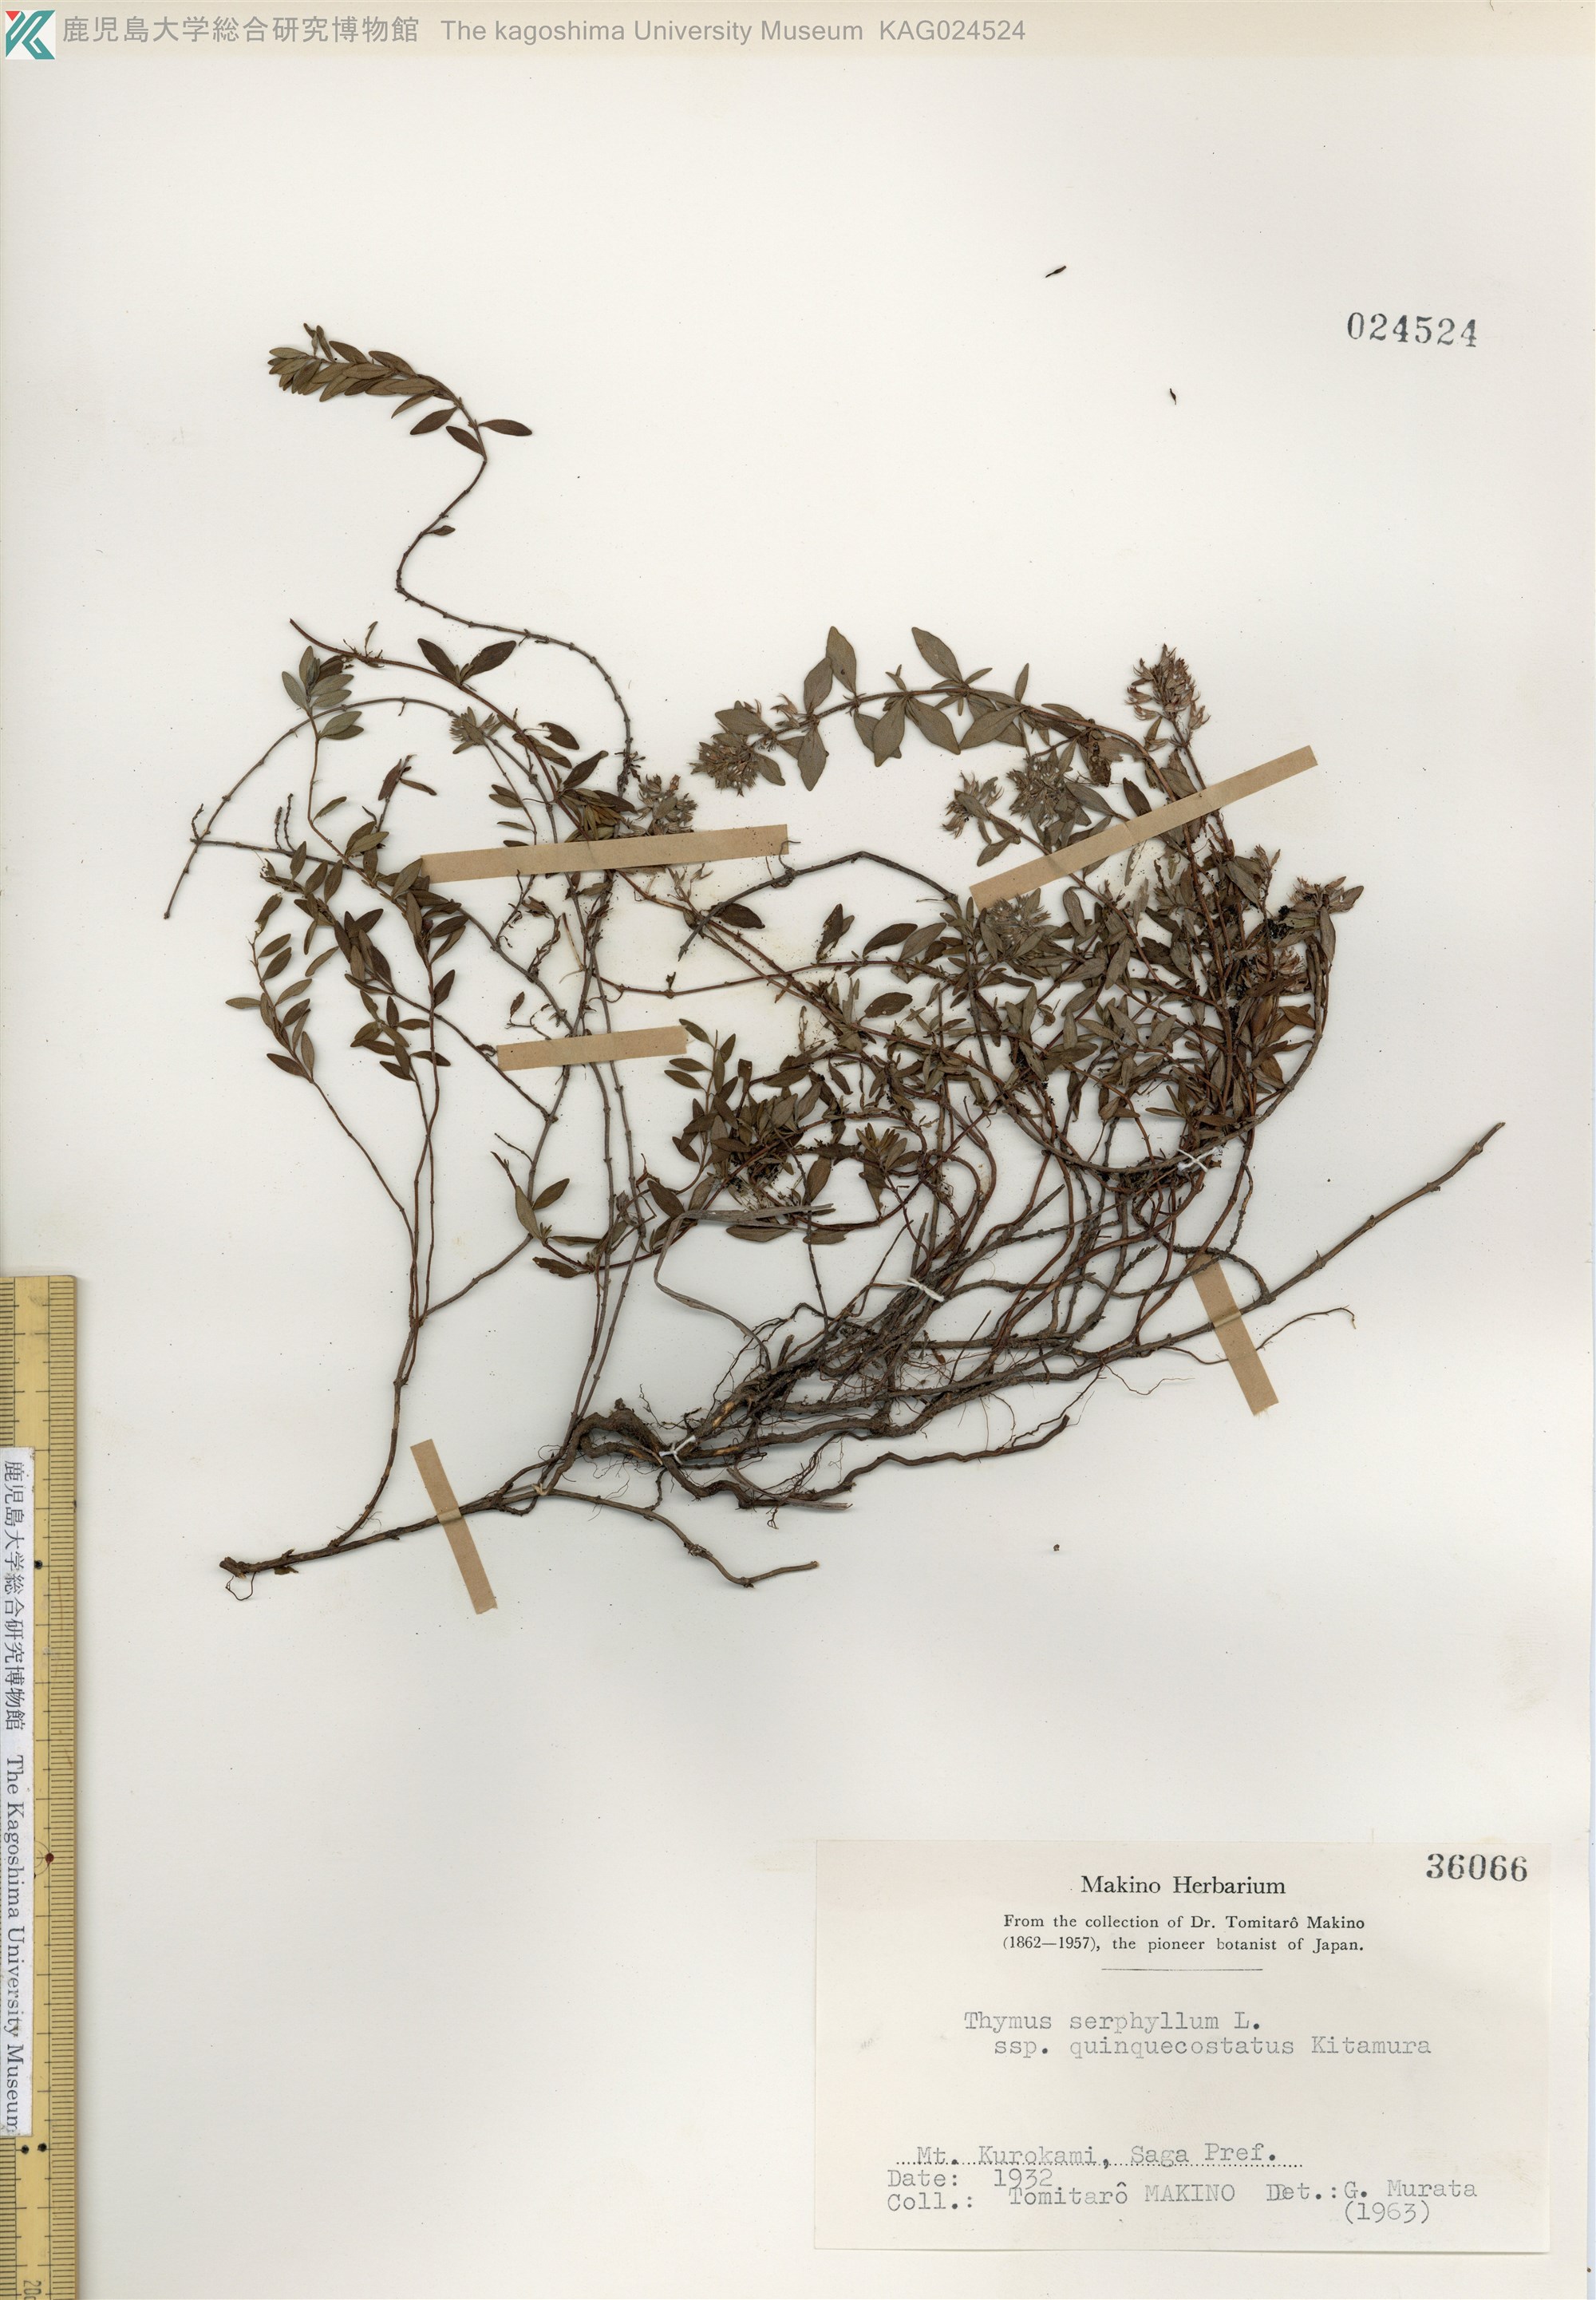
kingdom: Plantae
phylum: Tracheophyta
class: Magnoliopsida
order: Lamiales
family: Lamiaceae
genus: Thymus
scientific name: Thymus quinquecostatus
